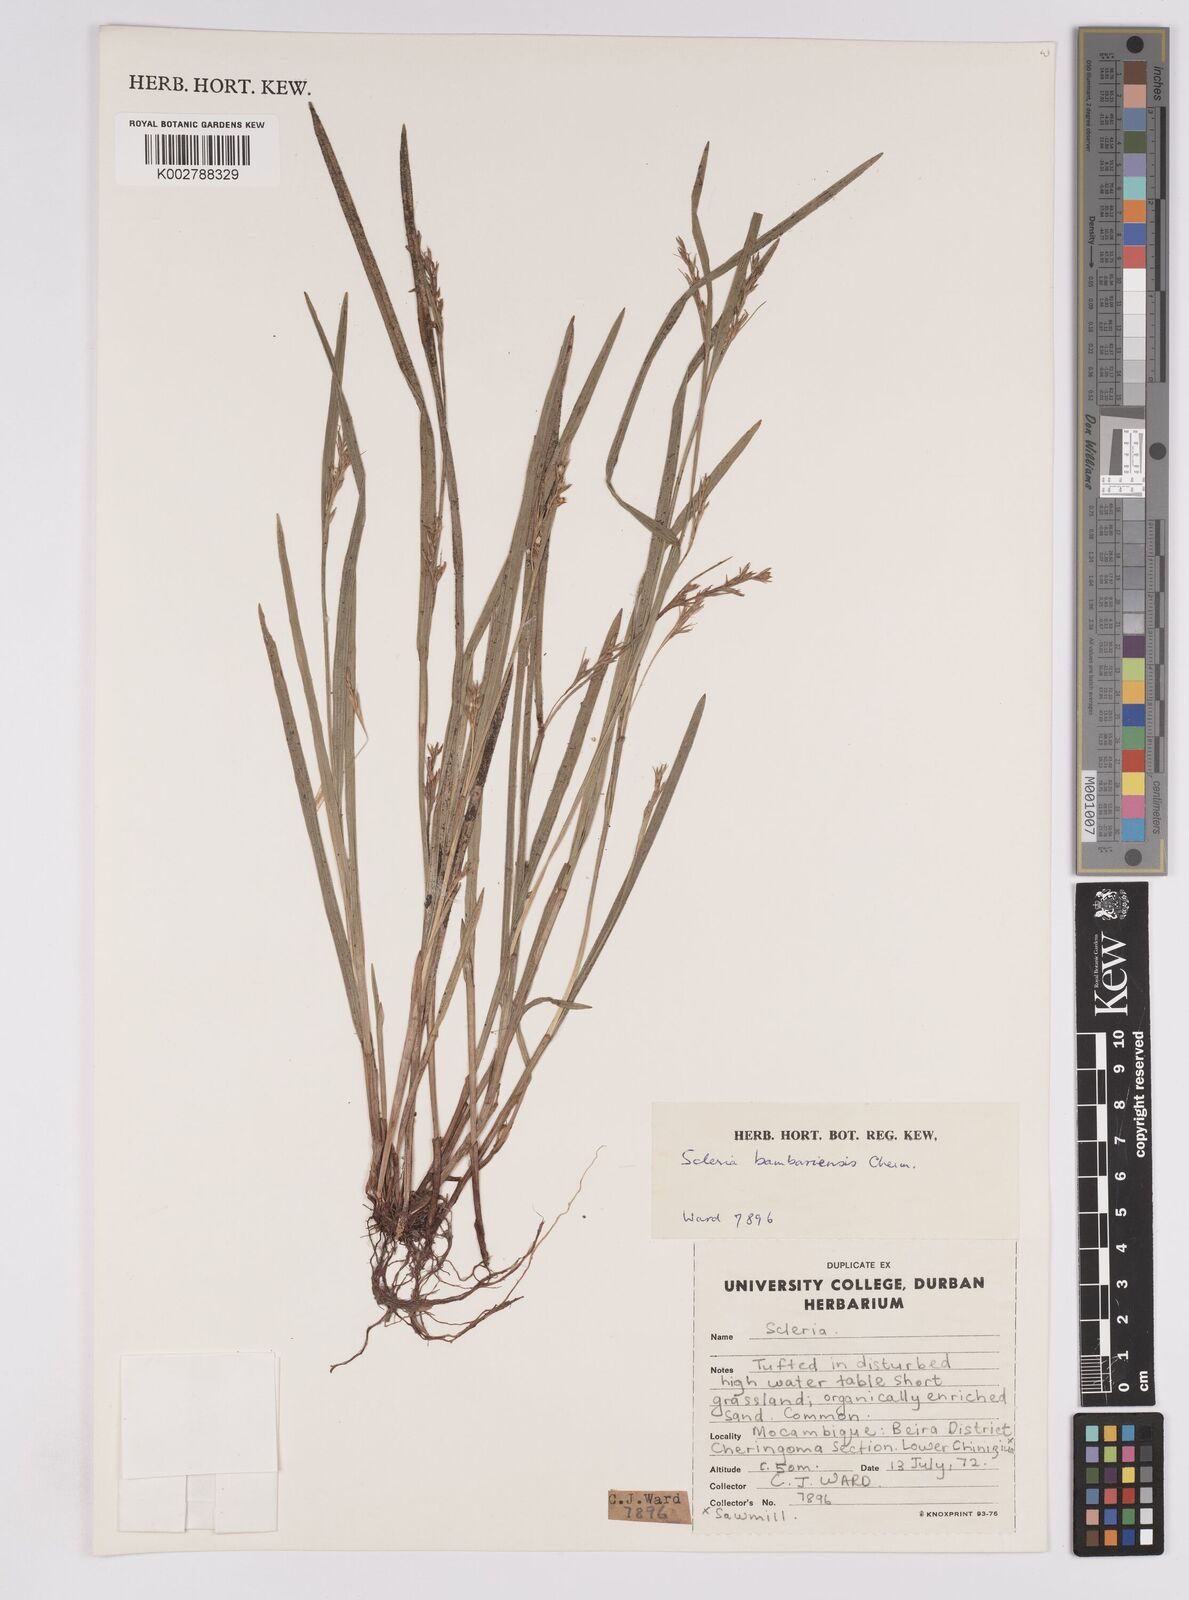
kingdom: Plantae
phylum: Tracheophyta
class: Liliopsida
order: Poales
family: Cyperaceae
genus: Scleria
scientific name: Scleria bambariensis
